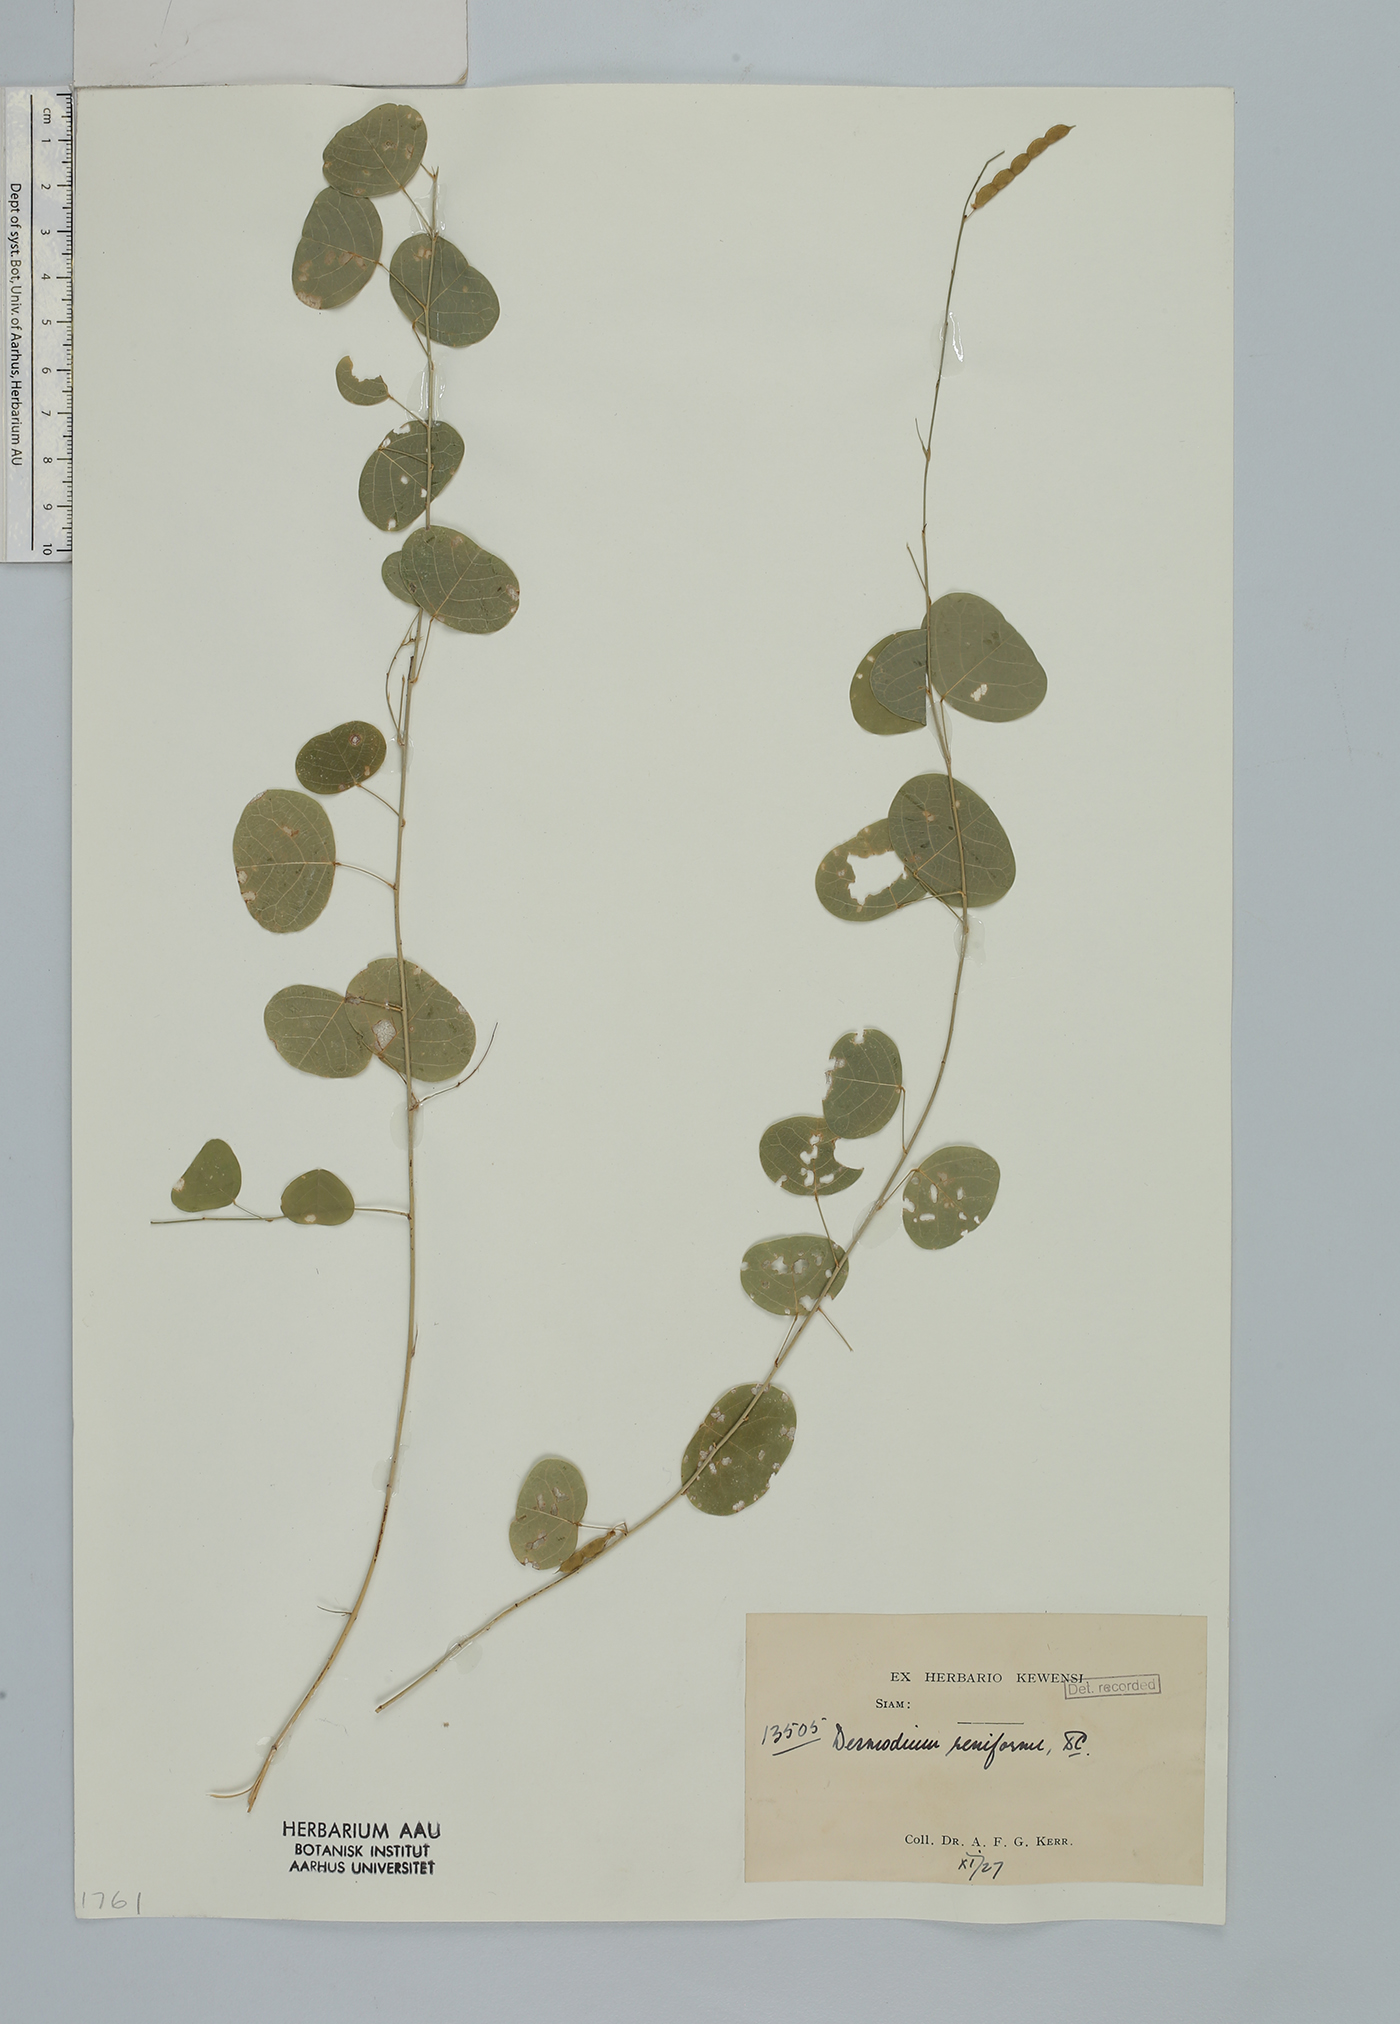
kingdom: Plantae
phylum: Tracheophyta
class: Magnoliopsida
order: Fabales
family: Fabaceae
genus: Huangtcia
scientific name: Huangtcia renifolia
